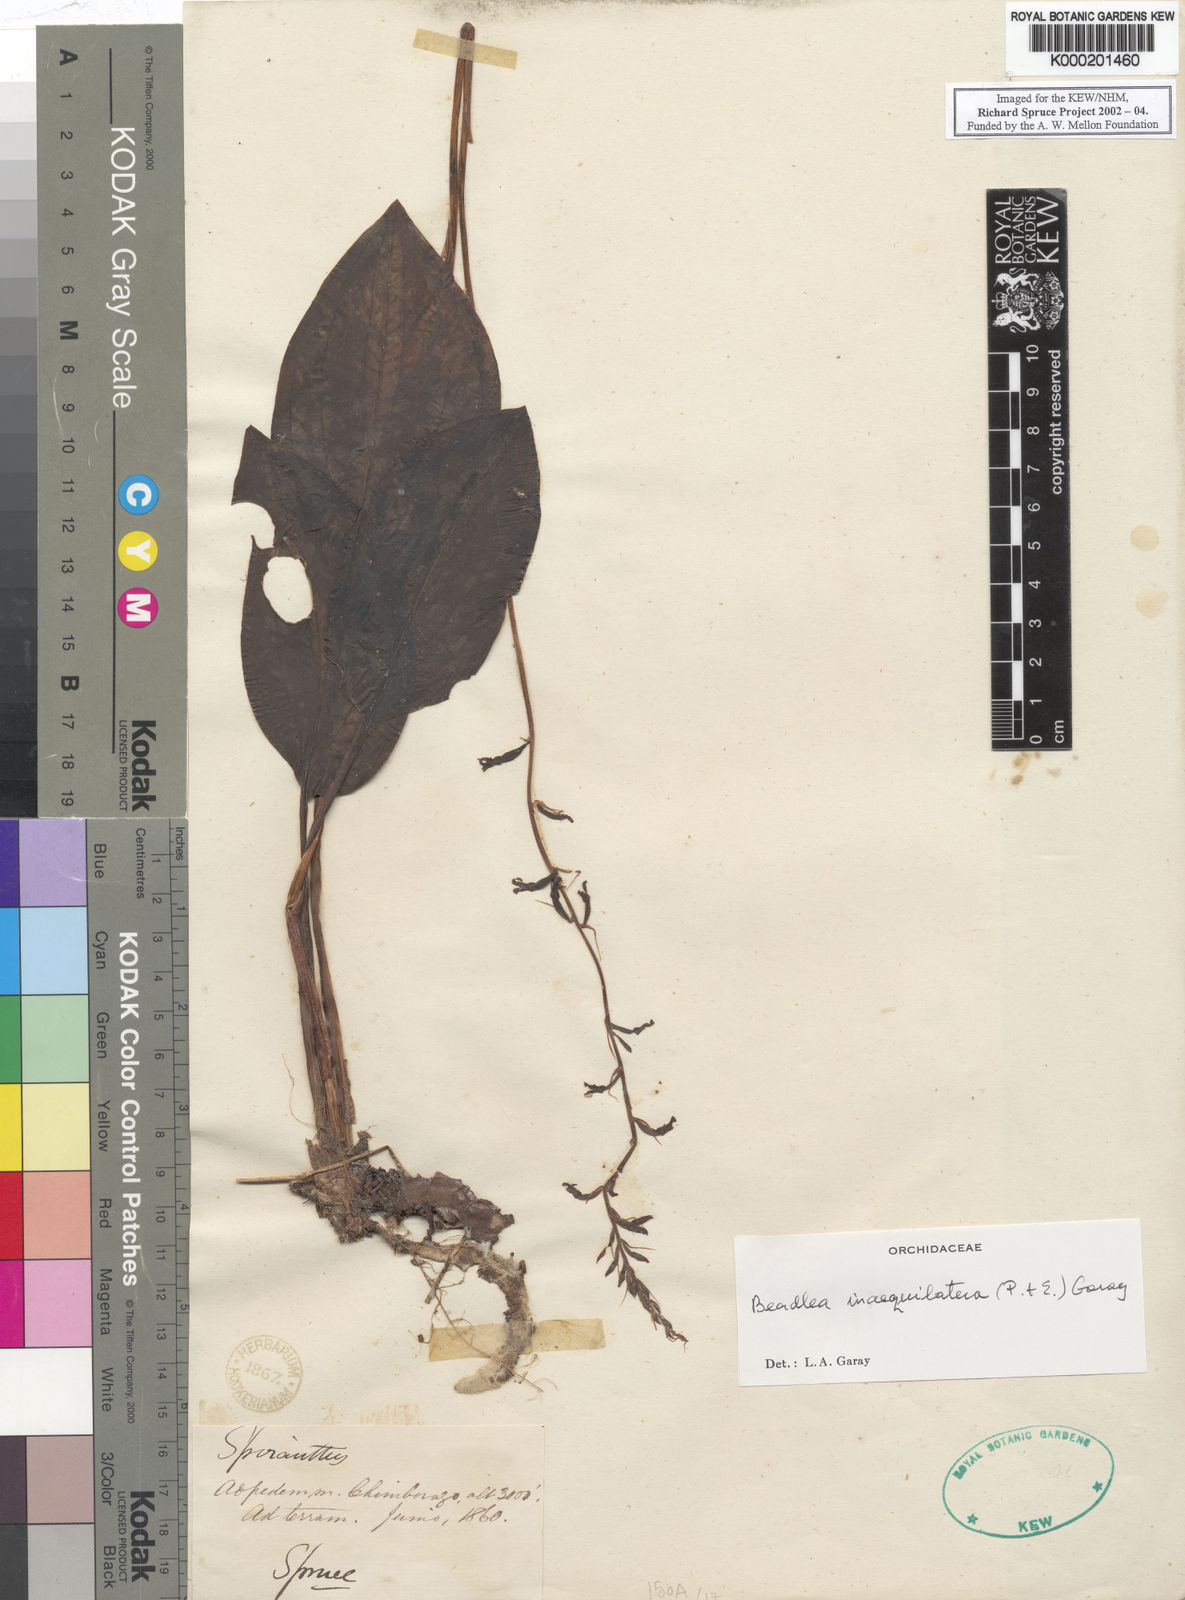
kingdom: Plantae
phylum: Tracheophyta
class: Liliopsida
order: Asparagales
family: Orchidaceae
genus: Cyclopogon
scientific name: Cyclopogon inaequilaterus
